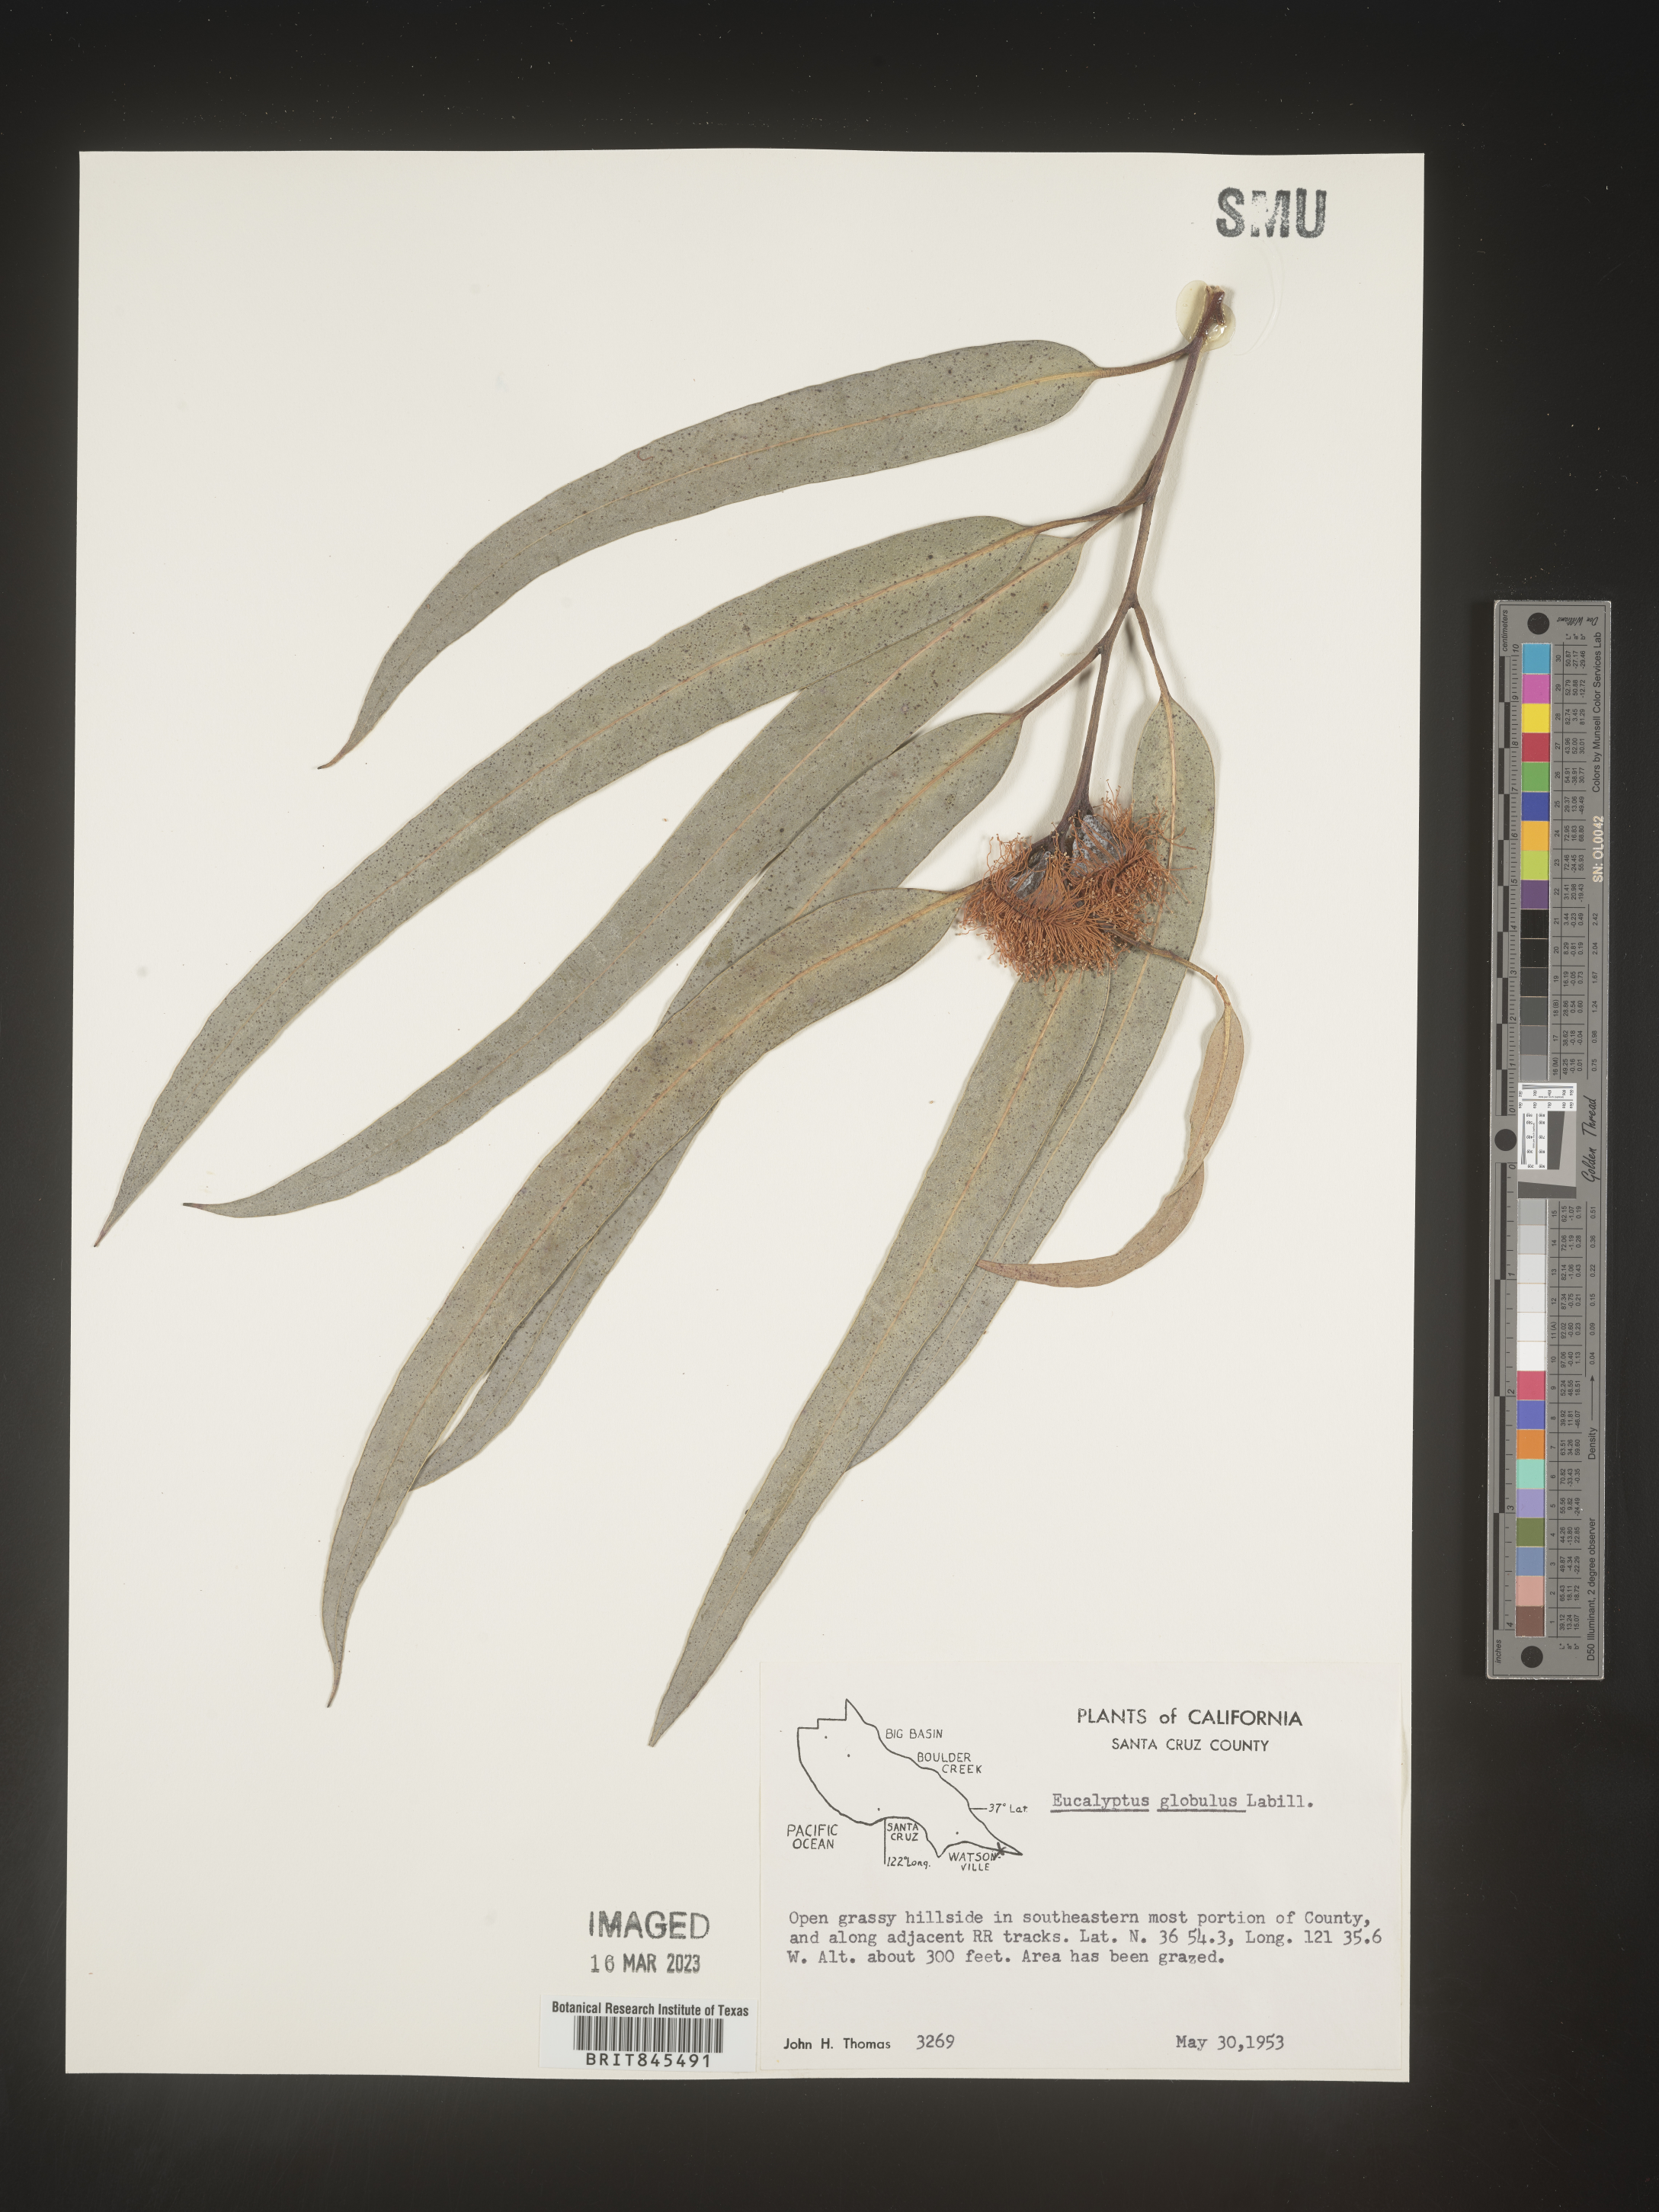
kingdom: Plantae
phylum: Tracheophyta
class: Magnoliopsida
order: Myrtales
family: Myrtaceae
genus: Eucalyptus
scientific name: Eucalyptus
